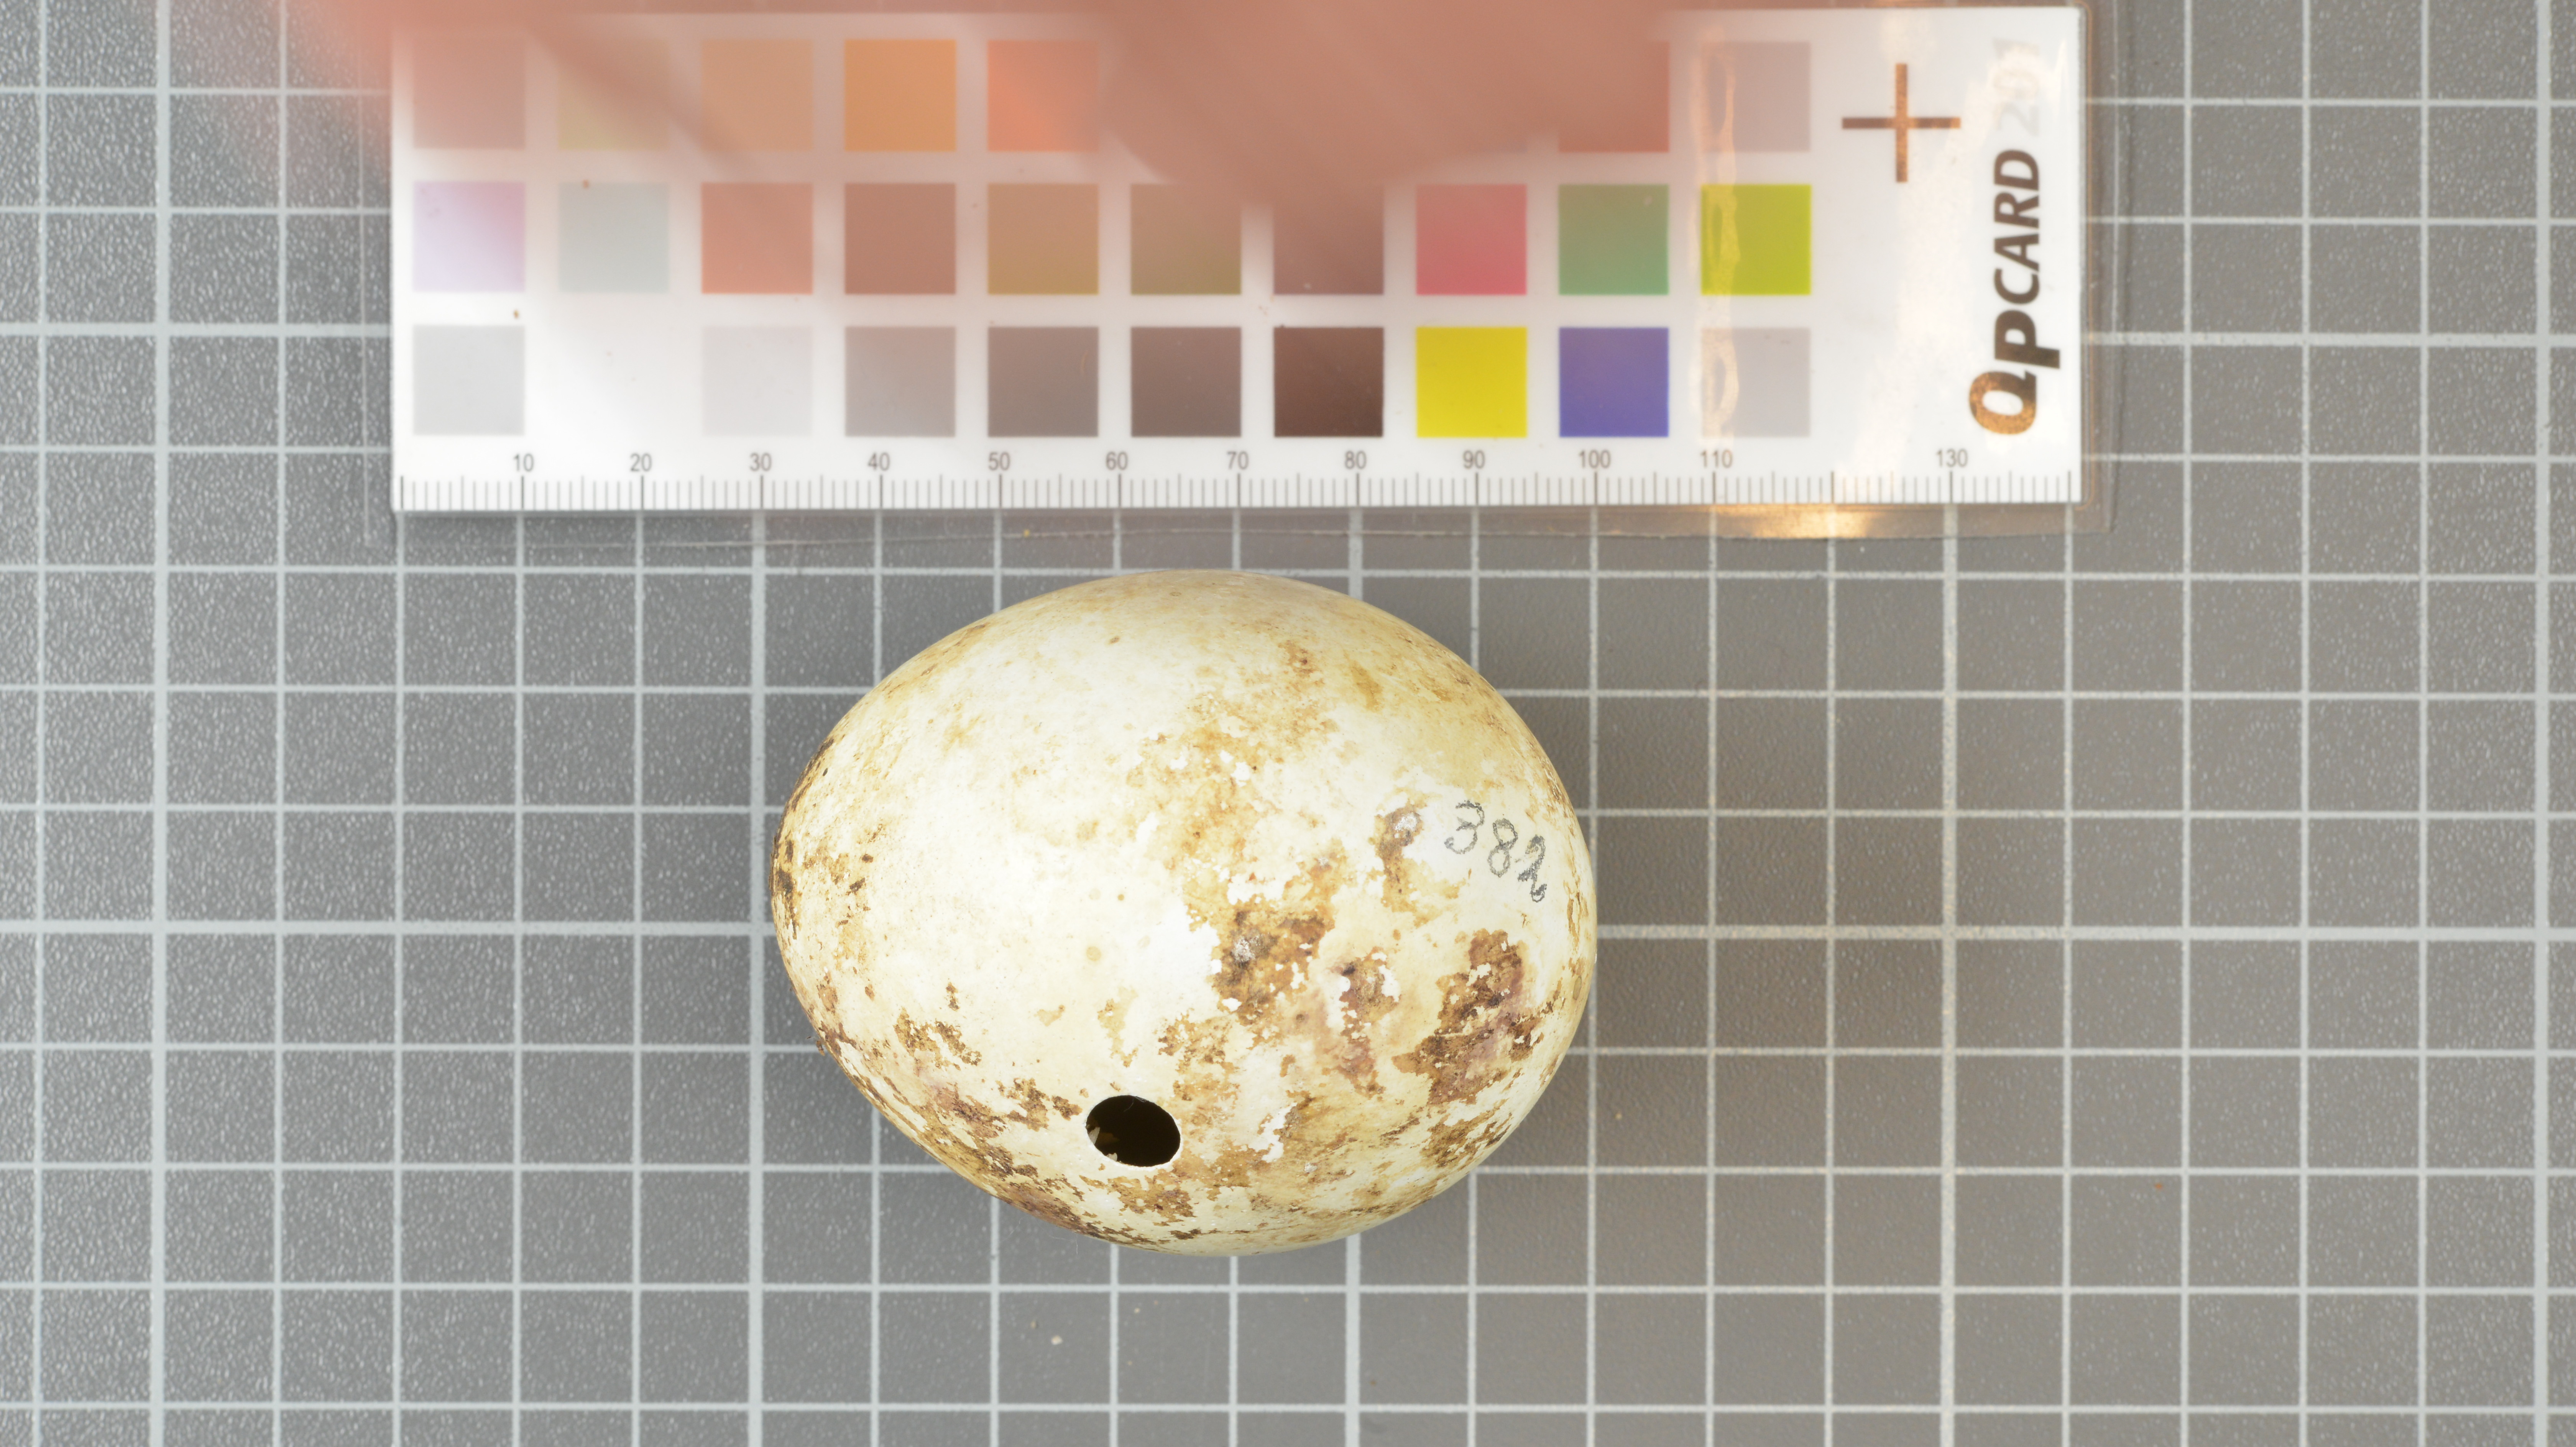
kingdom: Animalia
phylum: Chordata
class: Aves
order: Sphenisciformes
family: Spheniscidae
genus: Eudyptes
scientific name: Eudyptes moseleyi
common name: Northern rockhopper penguin
